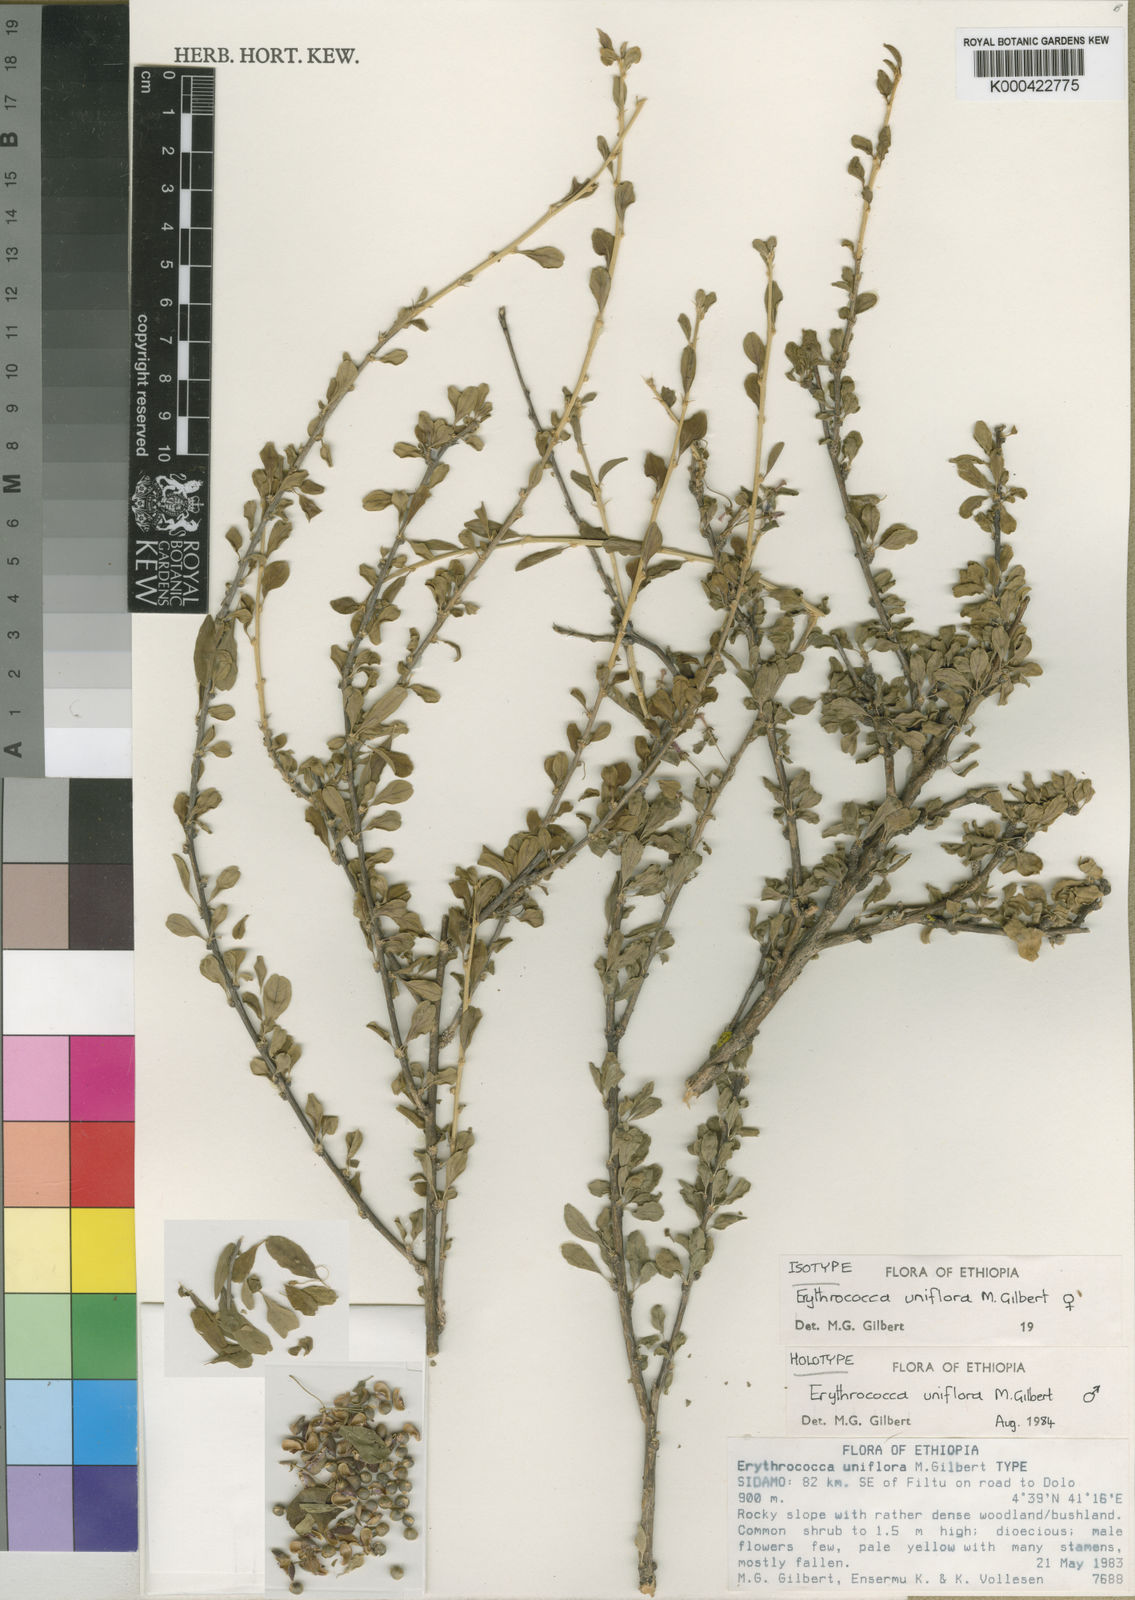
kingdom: Plantae
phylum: Tracheophyta
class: Magnoliopsida
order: Malpighiales
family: Euphorbiaceae
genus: Erythrococca
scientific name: Erythrococca uniflora
